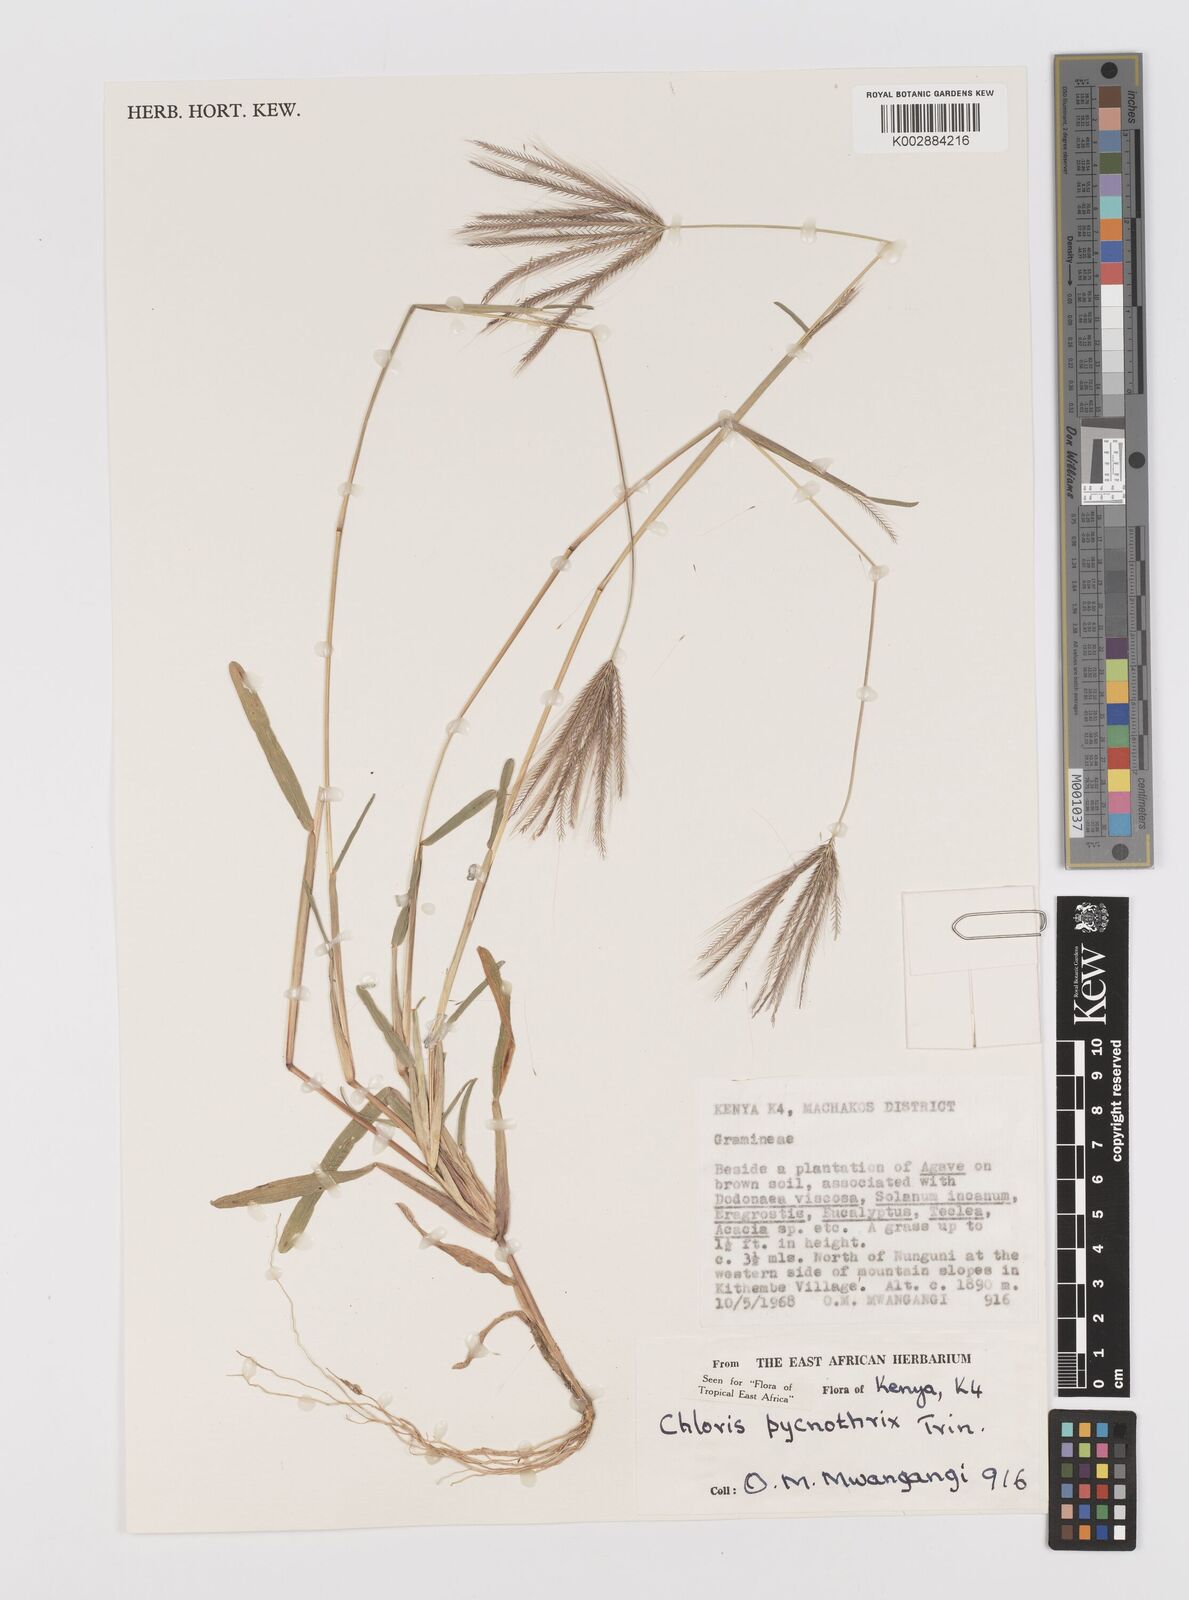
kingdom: Plantae
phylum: Tracheophyta
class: Liliopsida
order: Poales
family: Poaceae
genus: Chloris
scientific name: Chloris pycnothrix
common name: Spiderweb chloris
